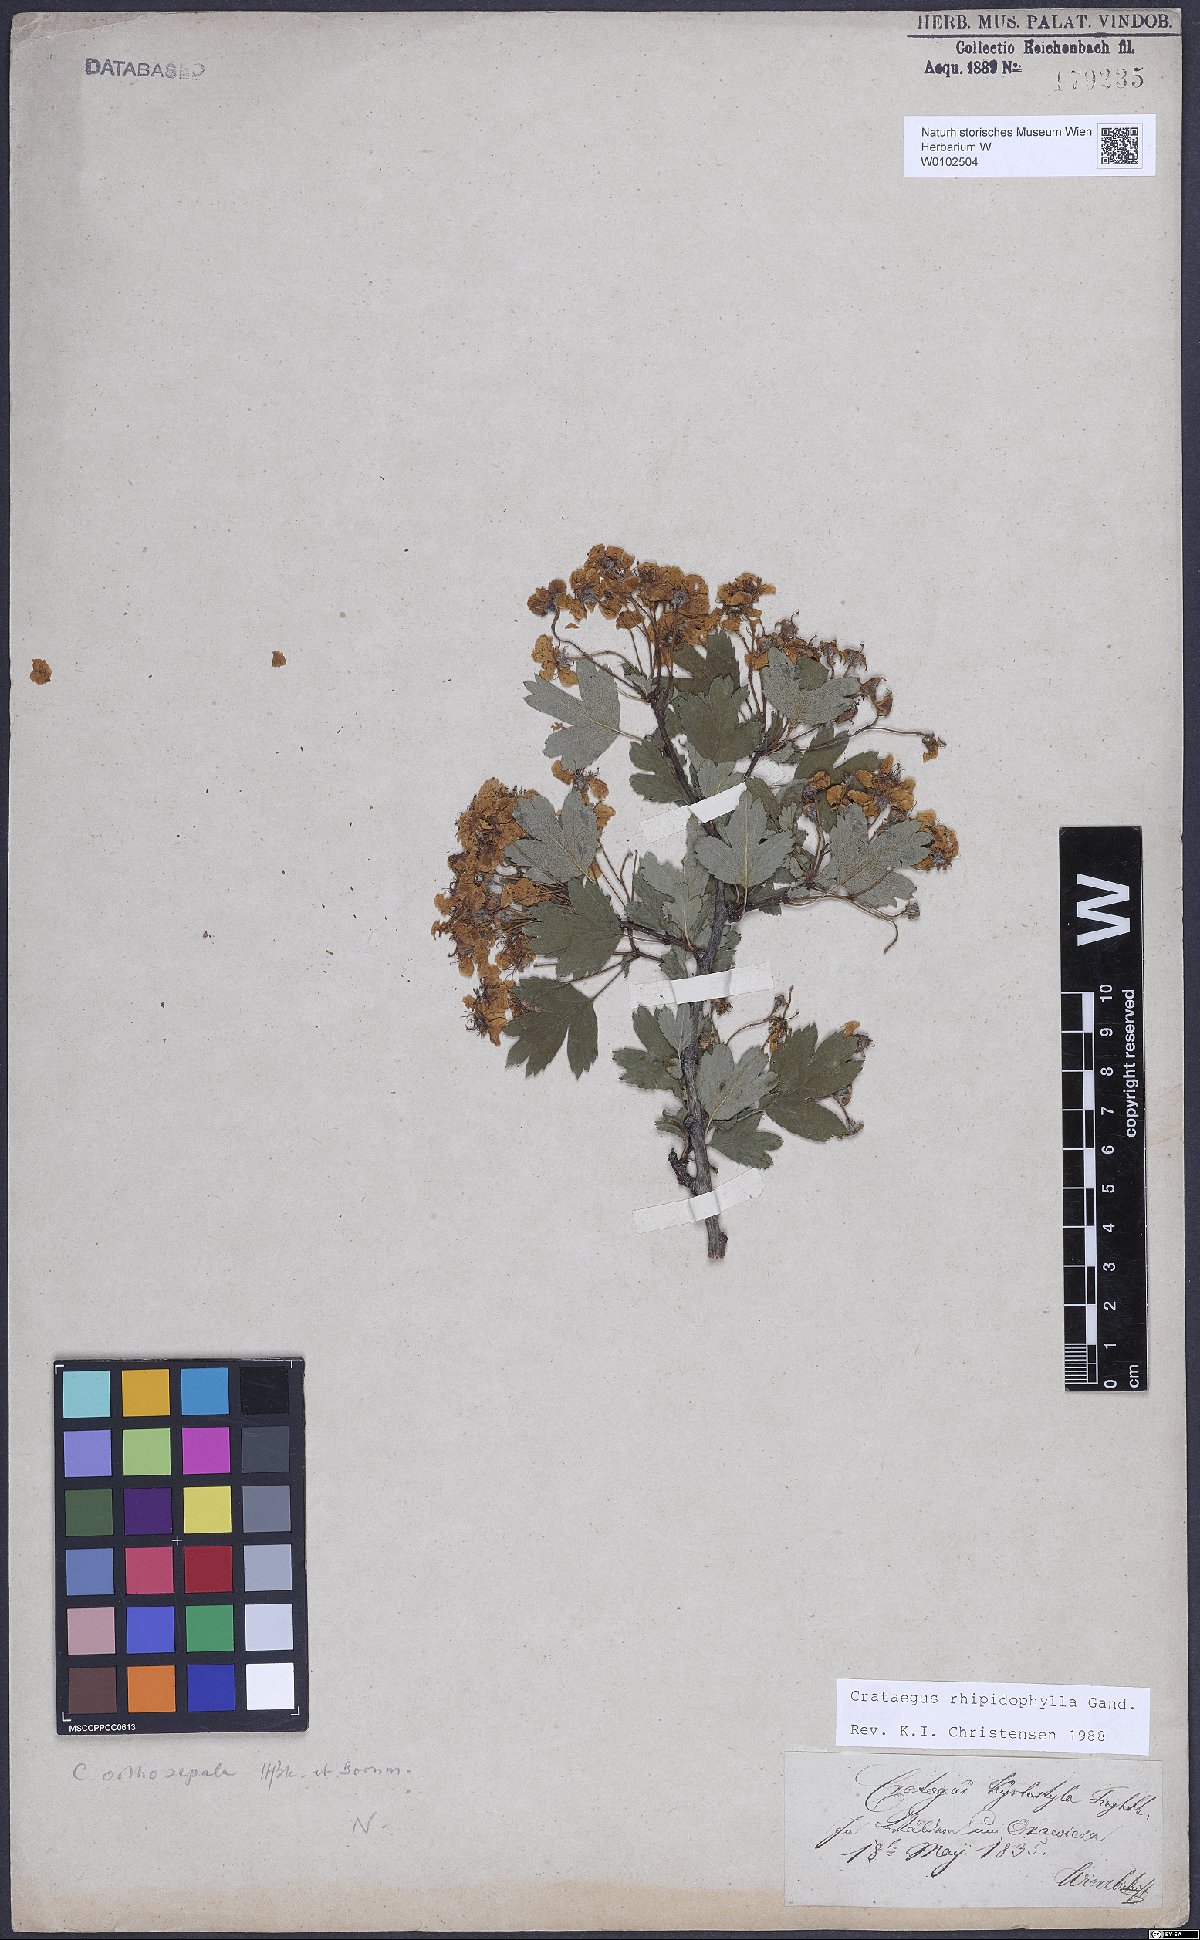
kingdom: Plantae
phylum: Tracheophyta
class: Magnoliopsida
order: Rosales
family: Rosaceae
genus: Crataegus
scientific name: Crataegus rhipidophylla
